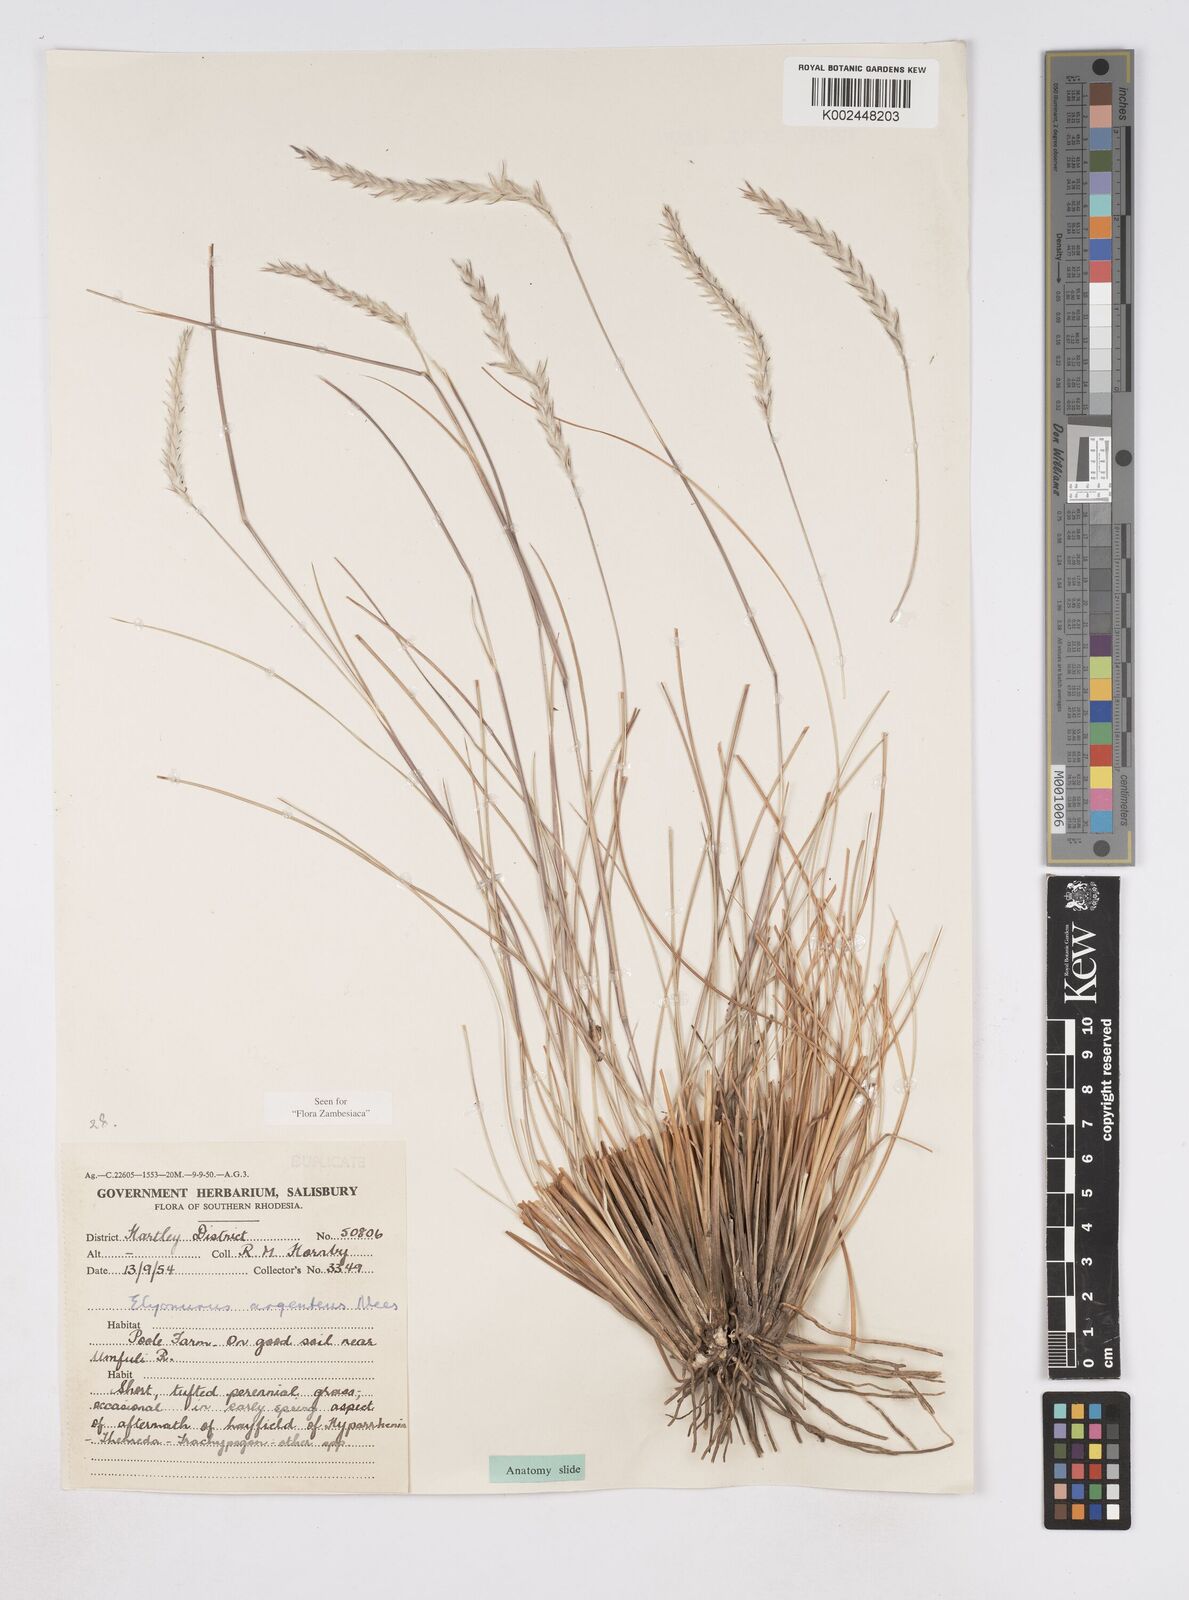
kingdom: Plantae
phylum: Tracheophyta
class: Liliopsida
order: Poales
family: Poaceae
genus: Elionurus
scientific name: Elionurus muticus
